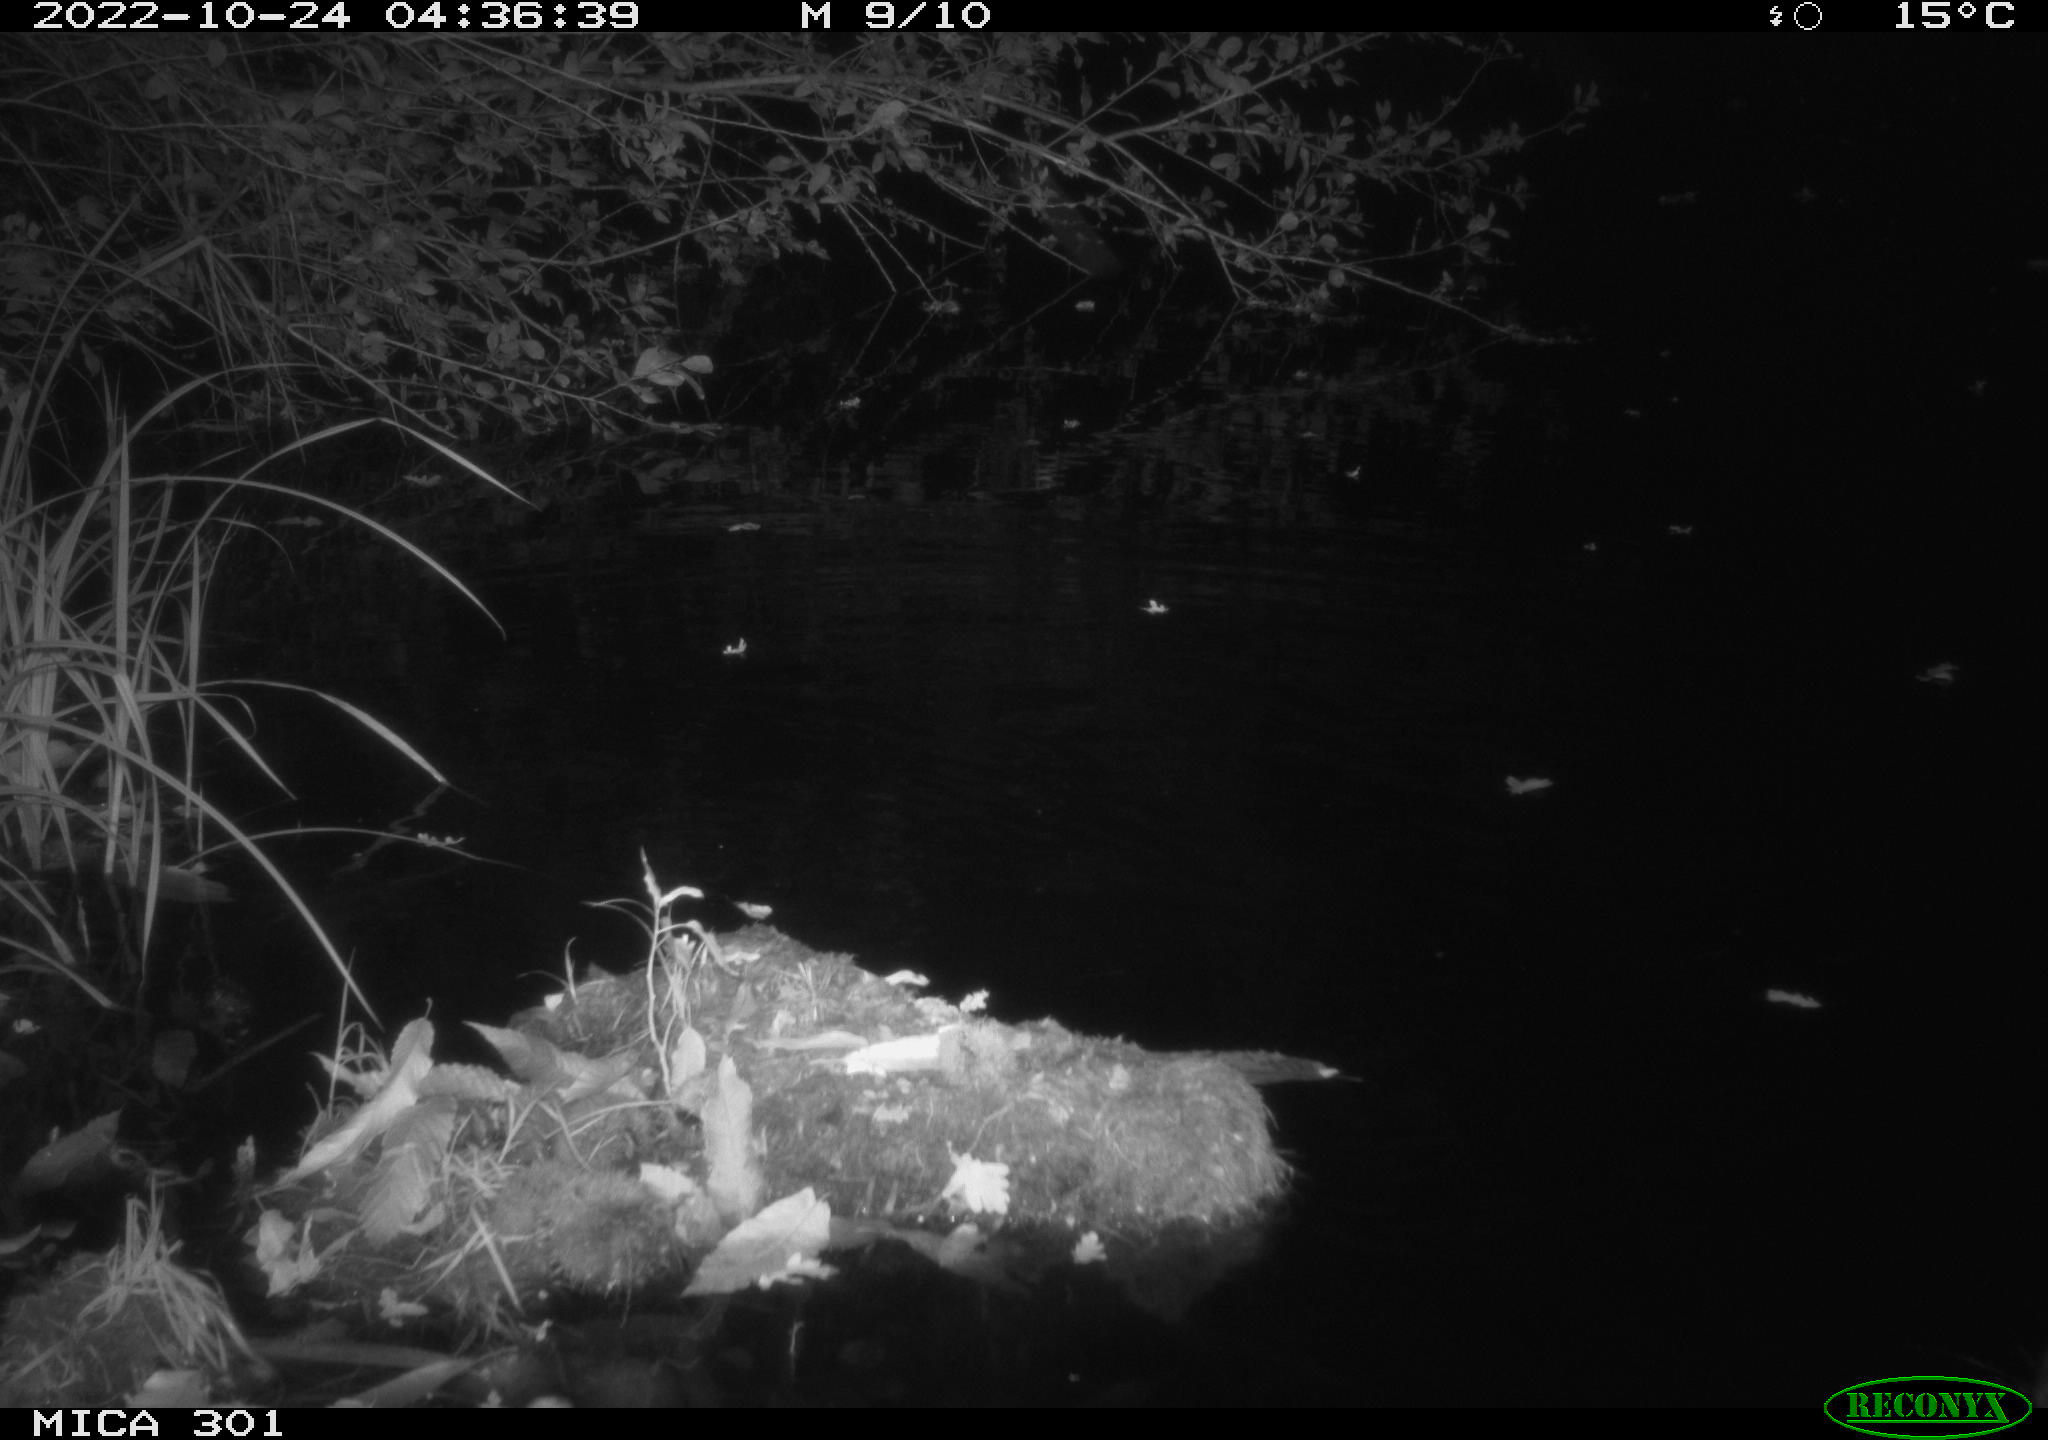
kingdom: Animalia
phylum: Chordata
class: Mammalia
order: Rodentia
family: Castoridae
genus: Castor
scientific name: Castor fiber
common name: Eurasian beaver
